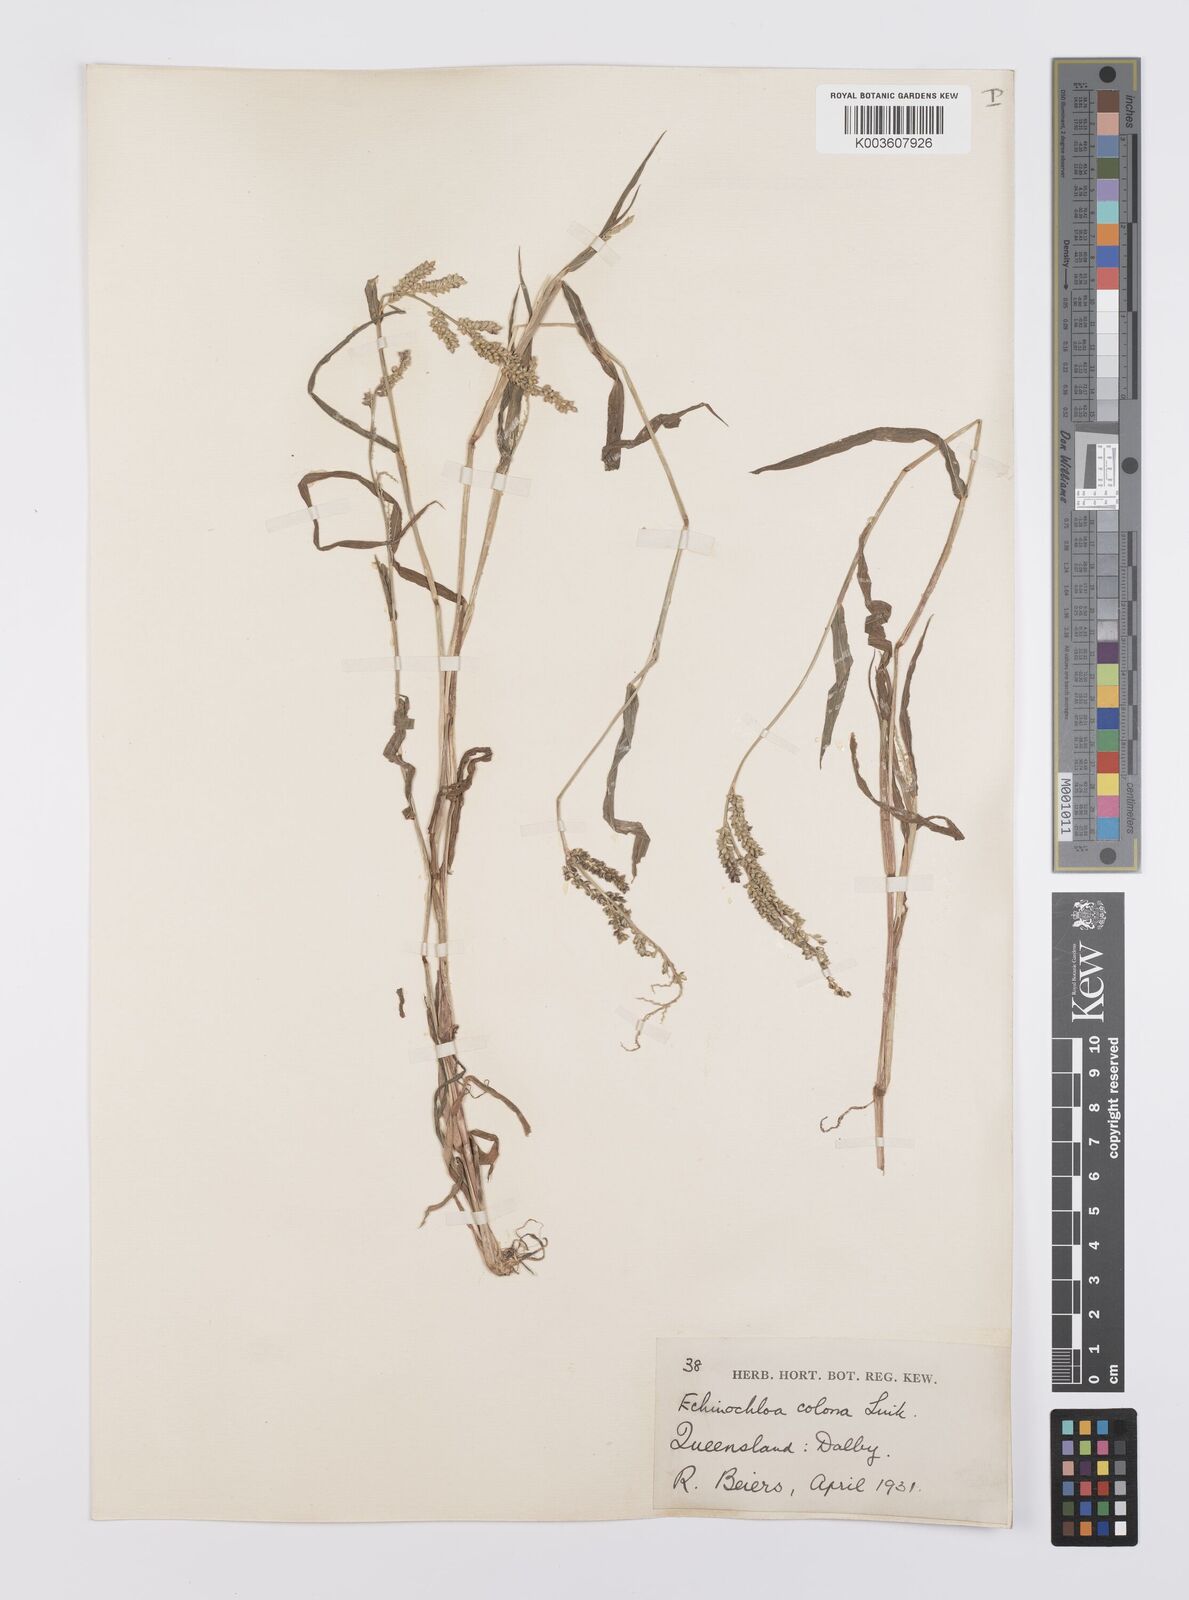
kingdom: Plantae
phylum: Tracheophyta
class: Liliopsida
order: Poales
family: Poaceae
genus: Echinochloa
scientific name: Echinochloa colonum
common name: Jungle rice
